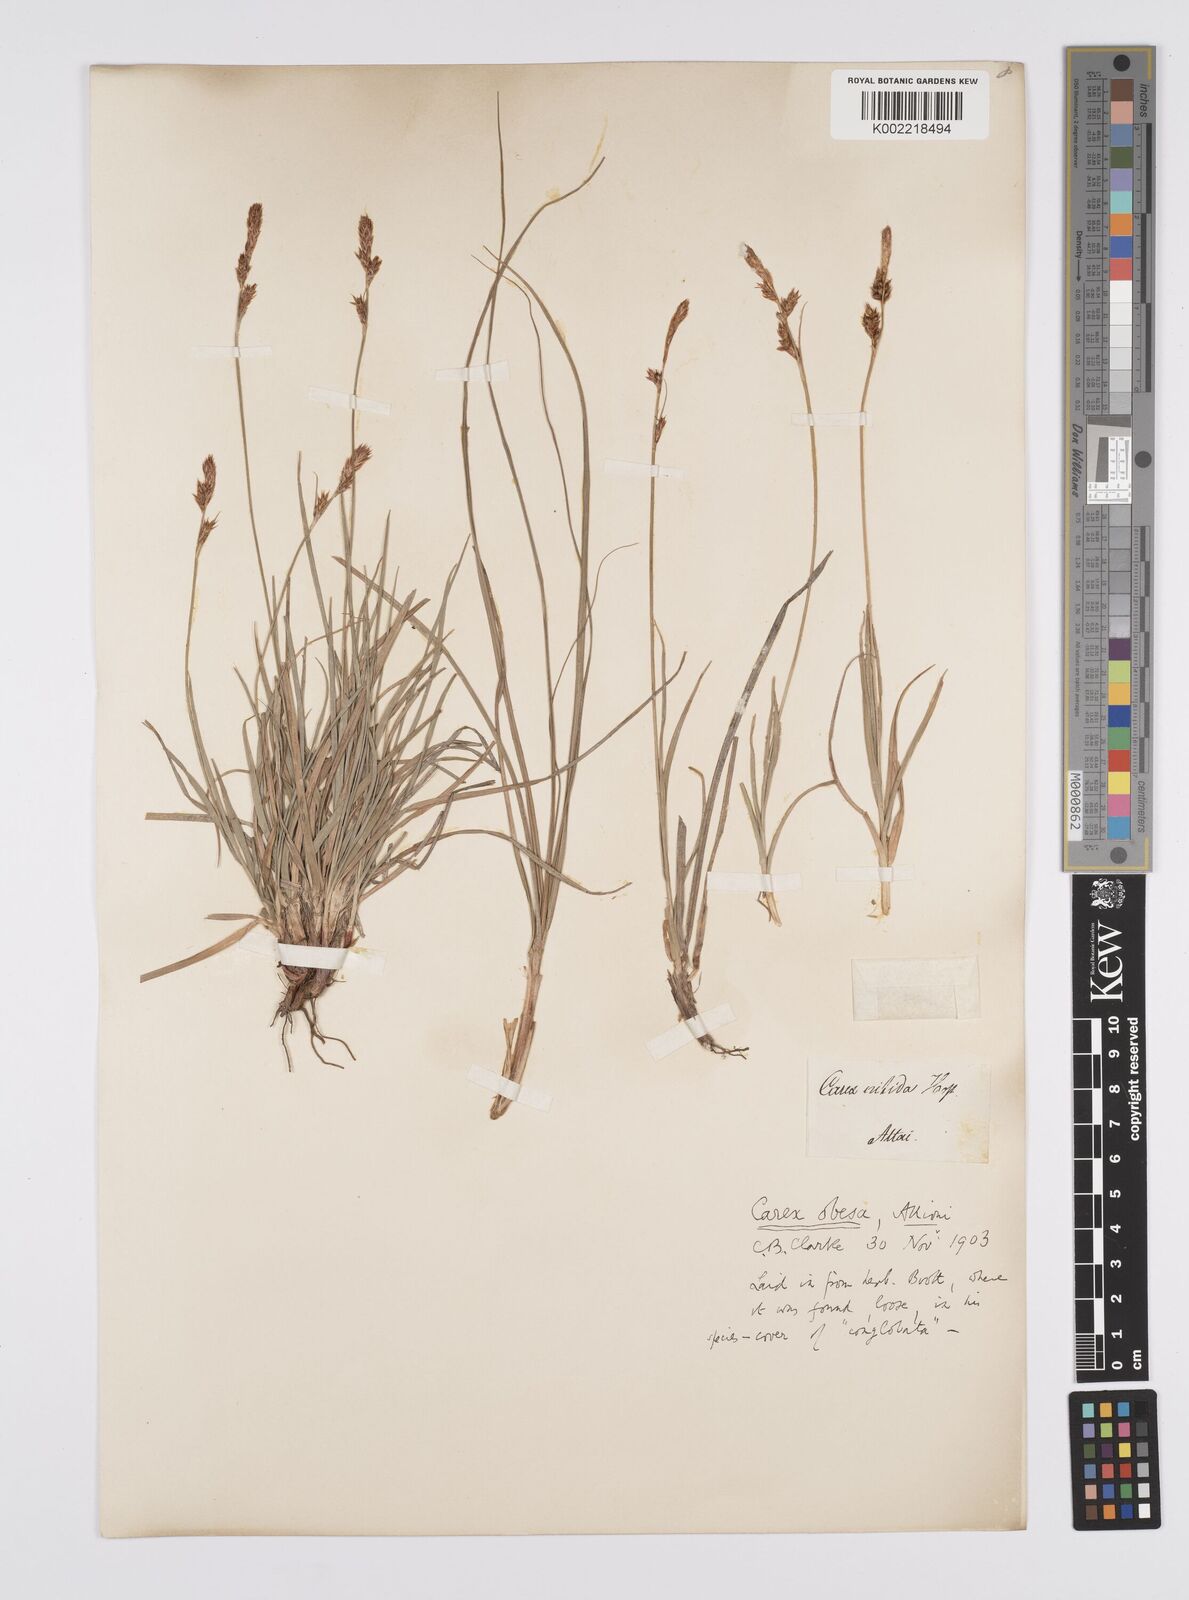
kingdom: Plantae
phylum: Tracheophyta
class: Liliopsida
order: Poales
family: Cyperaceae
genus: Carex
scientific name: Carex liparocarpos
